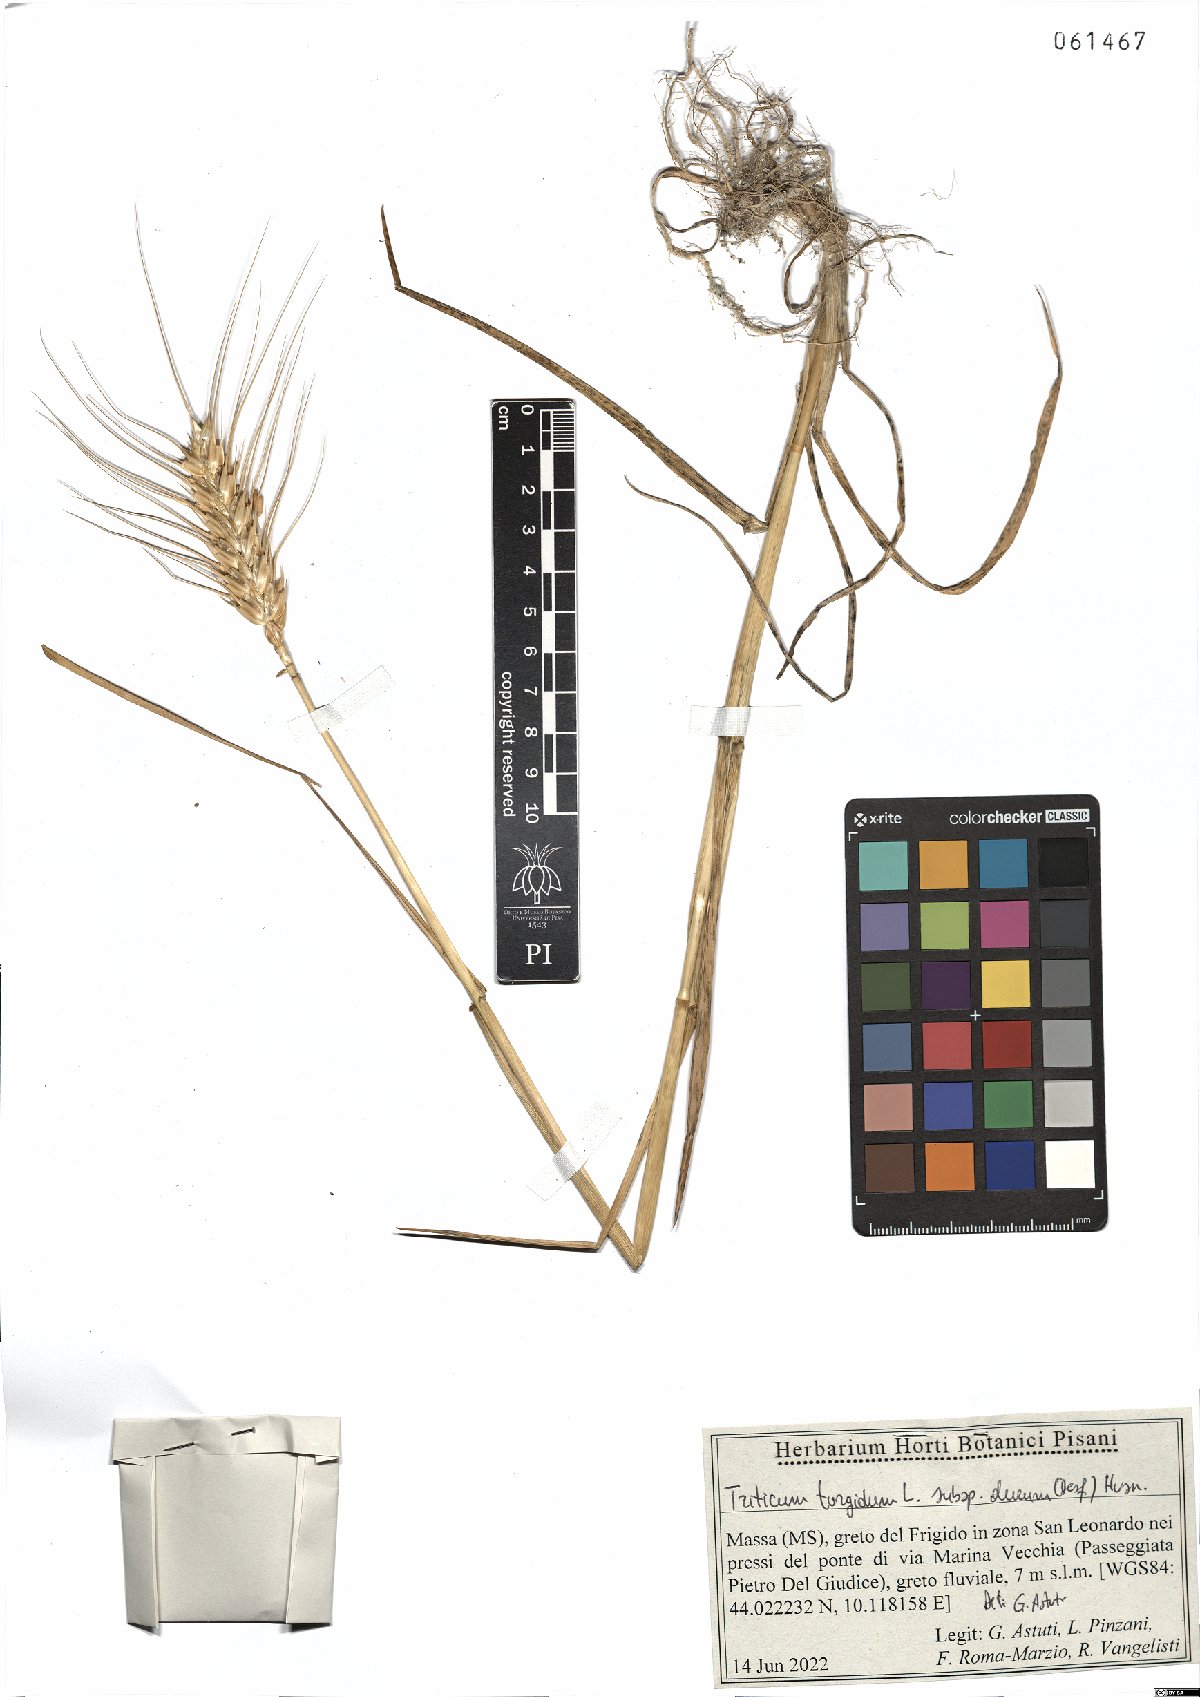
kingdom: Plantae
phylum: Tracheophyta
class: Liliopsida
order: Poales
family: Poaceae
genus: Triticum
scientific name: Triticum turgidum
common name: Rivet wheat
